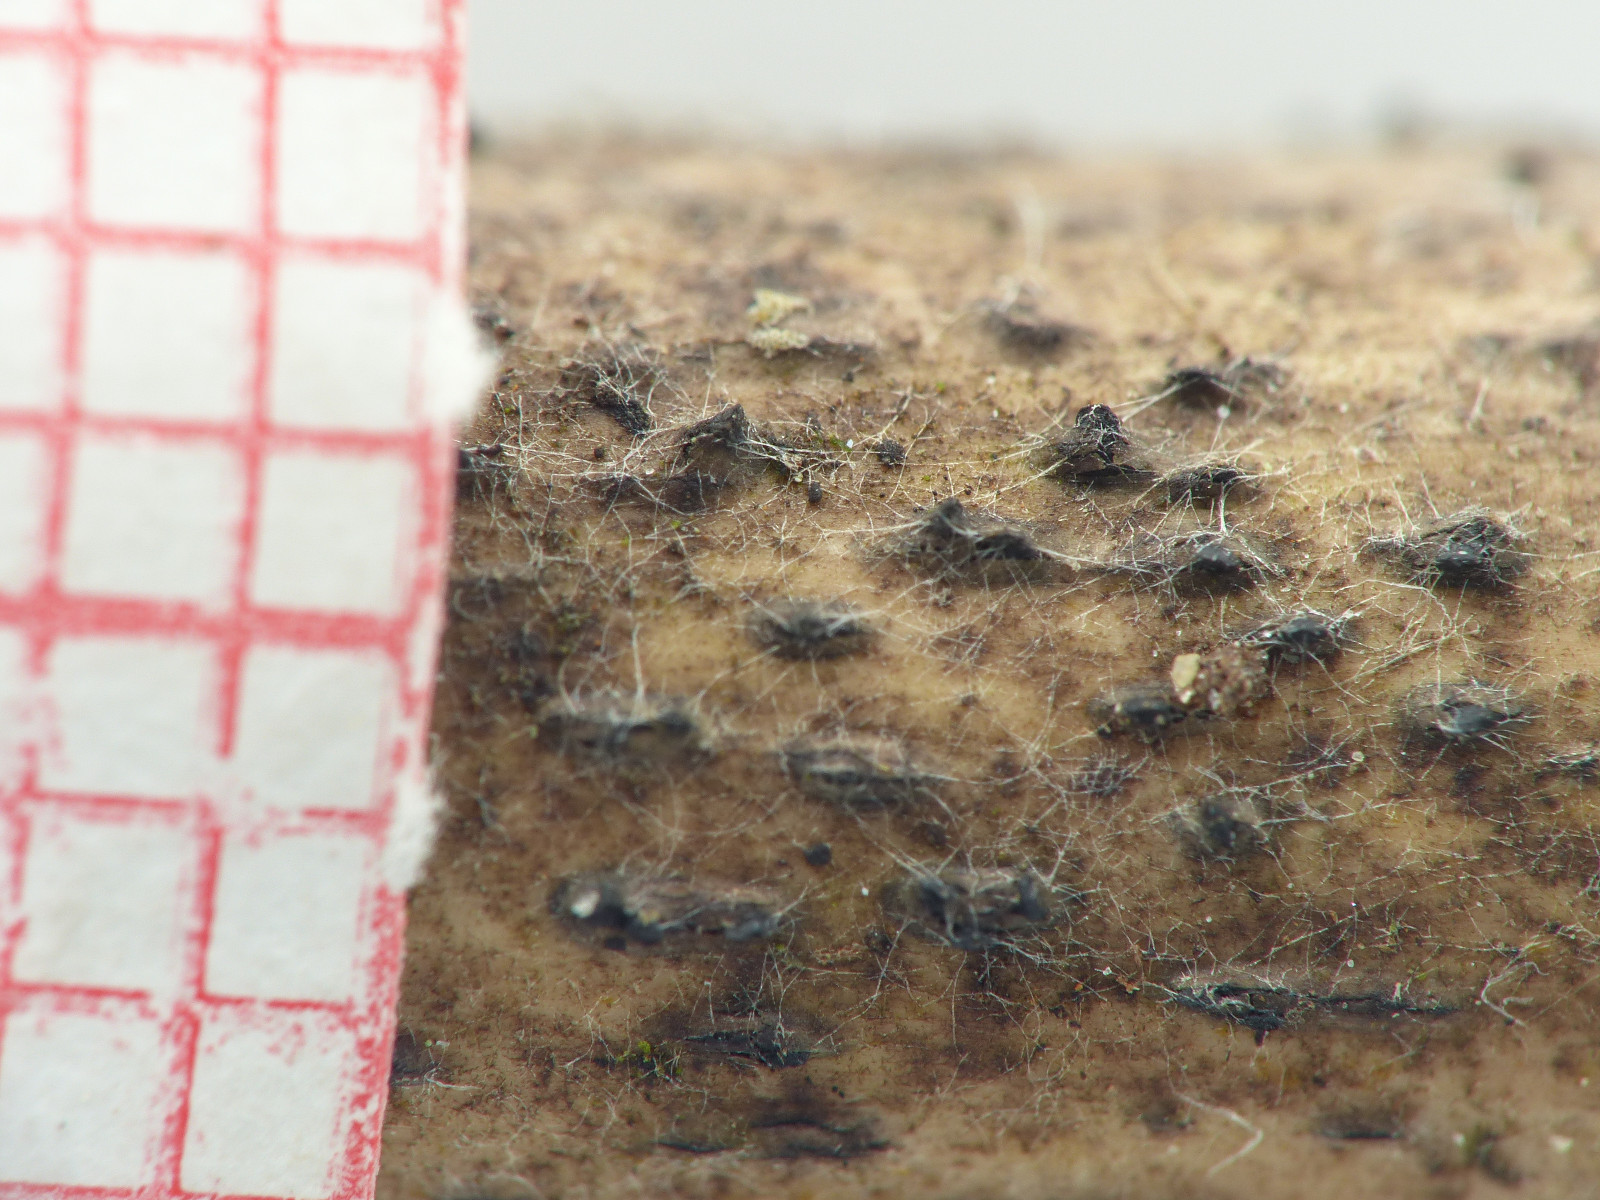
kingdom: Fungi
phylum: Ascomycota
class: Dothideomycetes
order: Pleosporales
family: Lophiostomataceae
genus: Sigarispora
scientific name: Sigarispora arundinis
